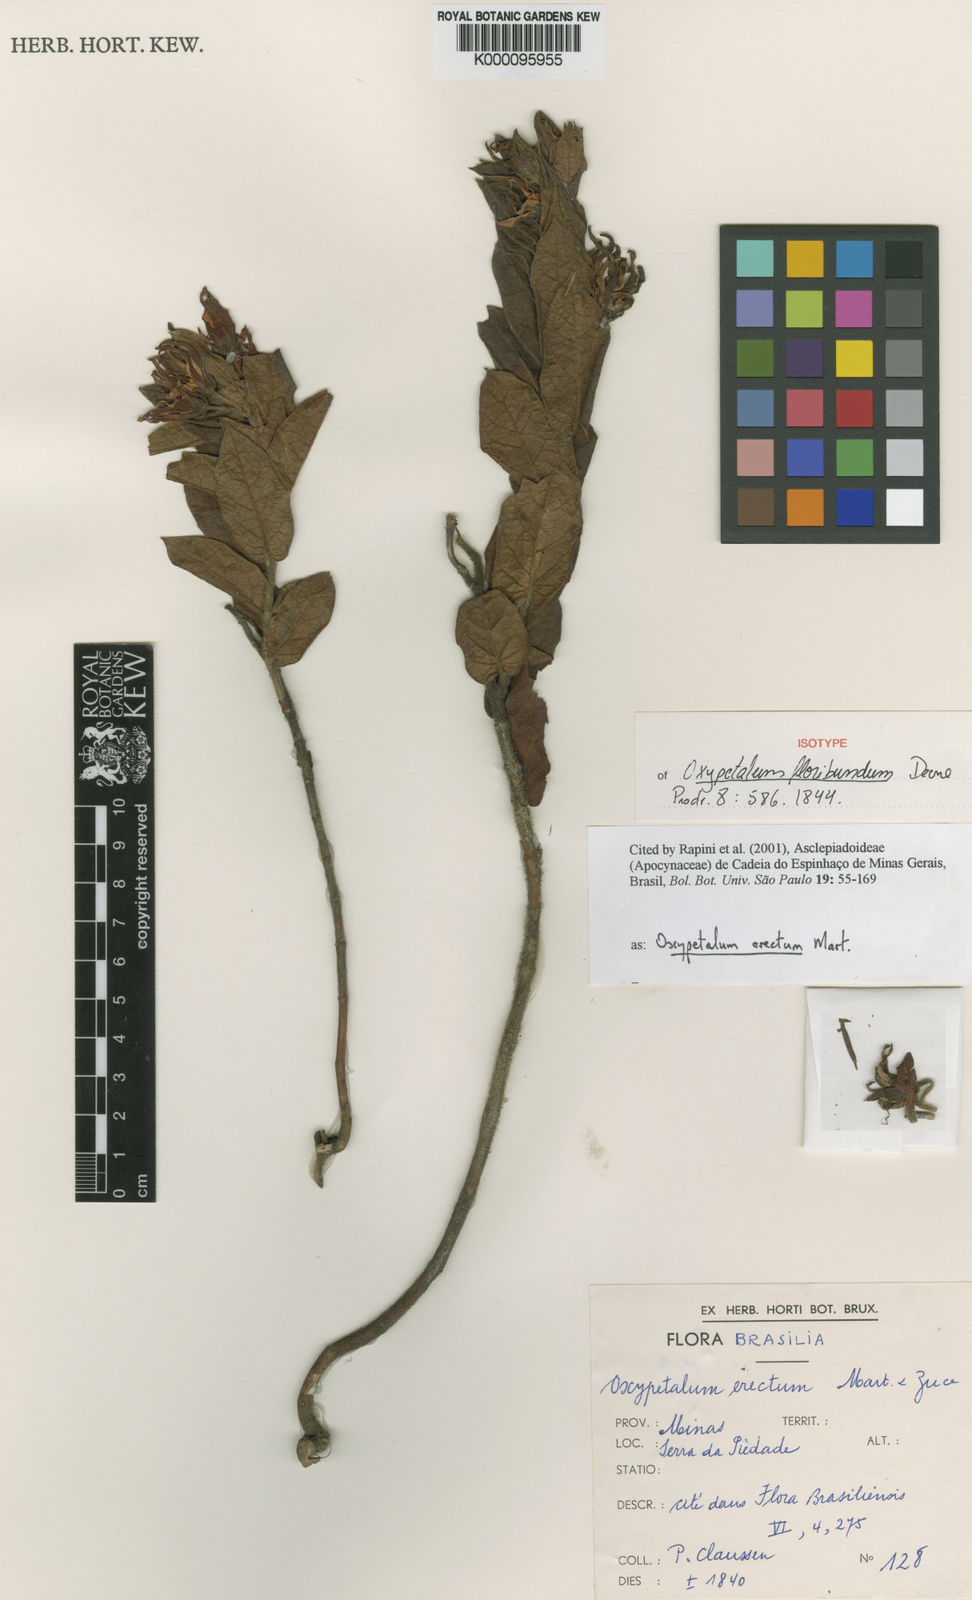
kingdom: Plantae
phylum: Tracheophyta
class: Magnoliopsida
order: Gentianales
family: Apocynaceae
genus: Oxypetalum
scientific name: Oxypetalum erectum
